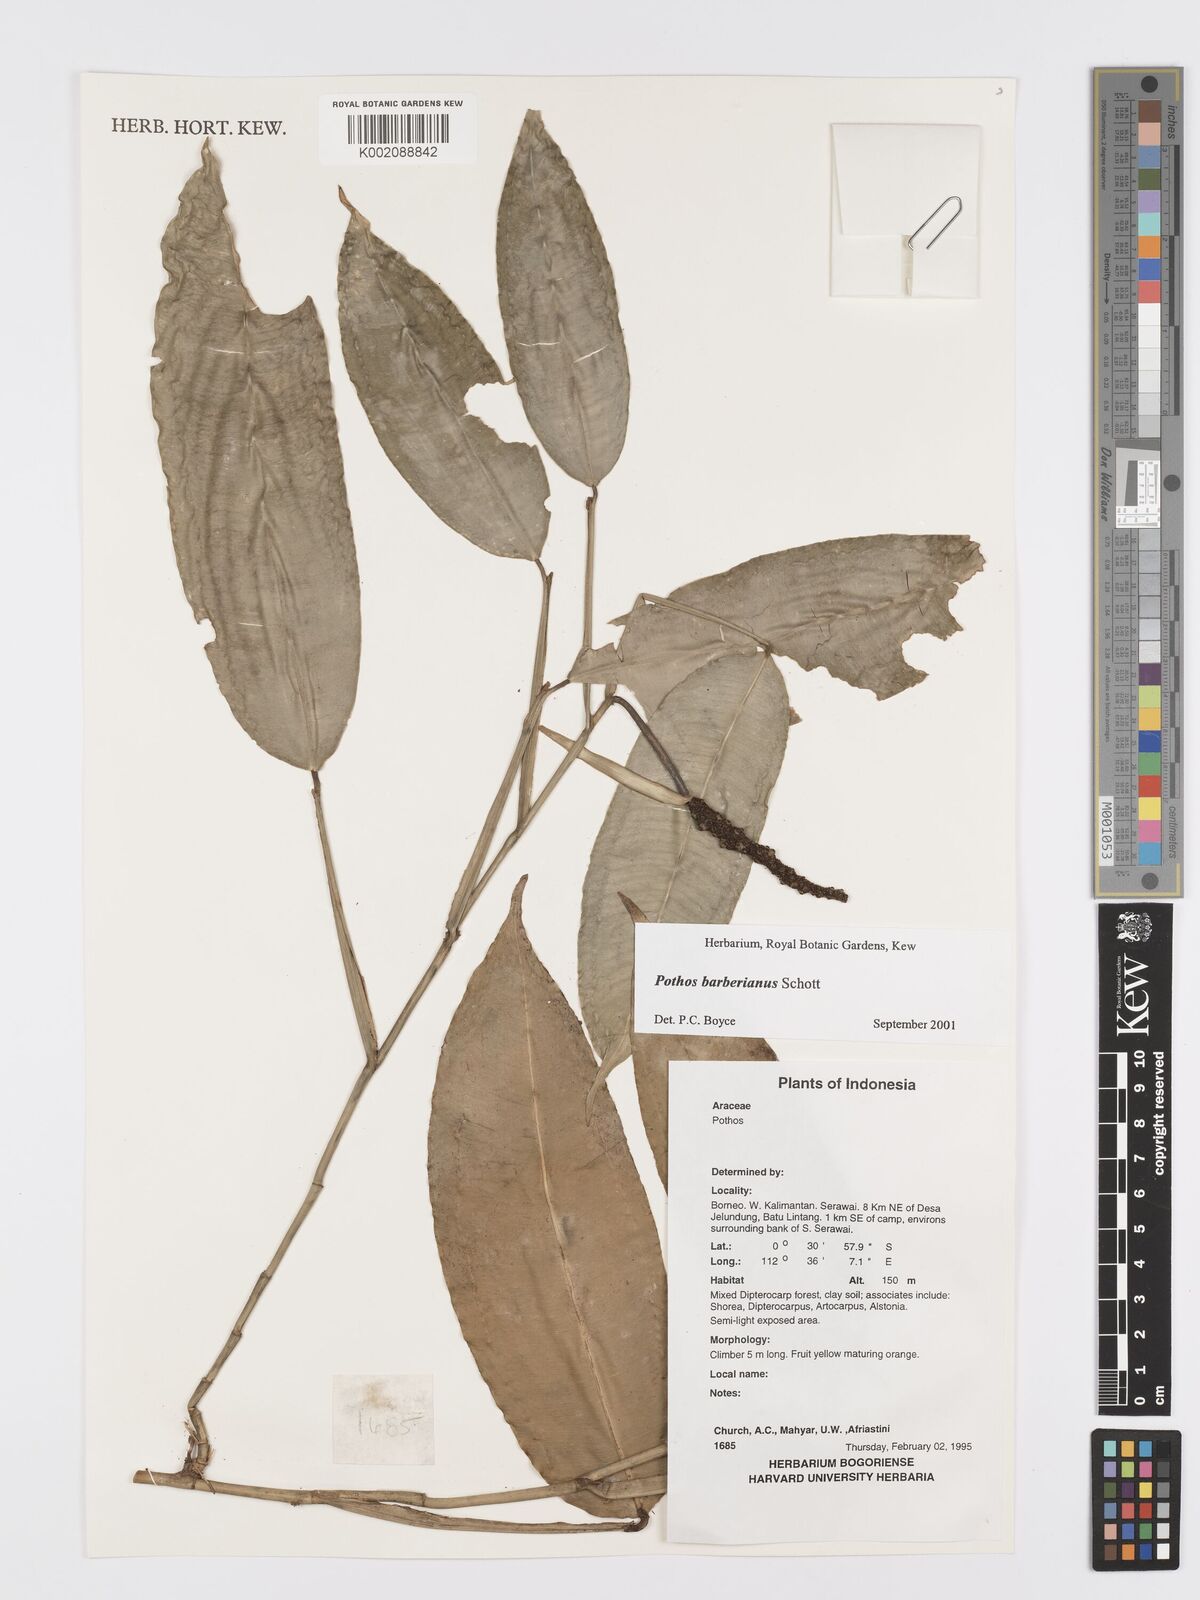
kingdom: Plantae
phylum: Tracheophyta
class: Liliopsida
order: Alismatales
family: Araceae
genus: Pothos
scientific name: Pothos barberianus
